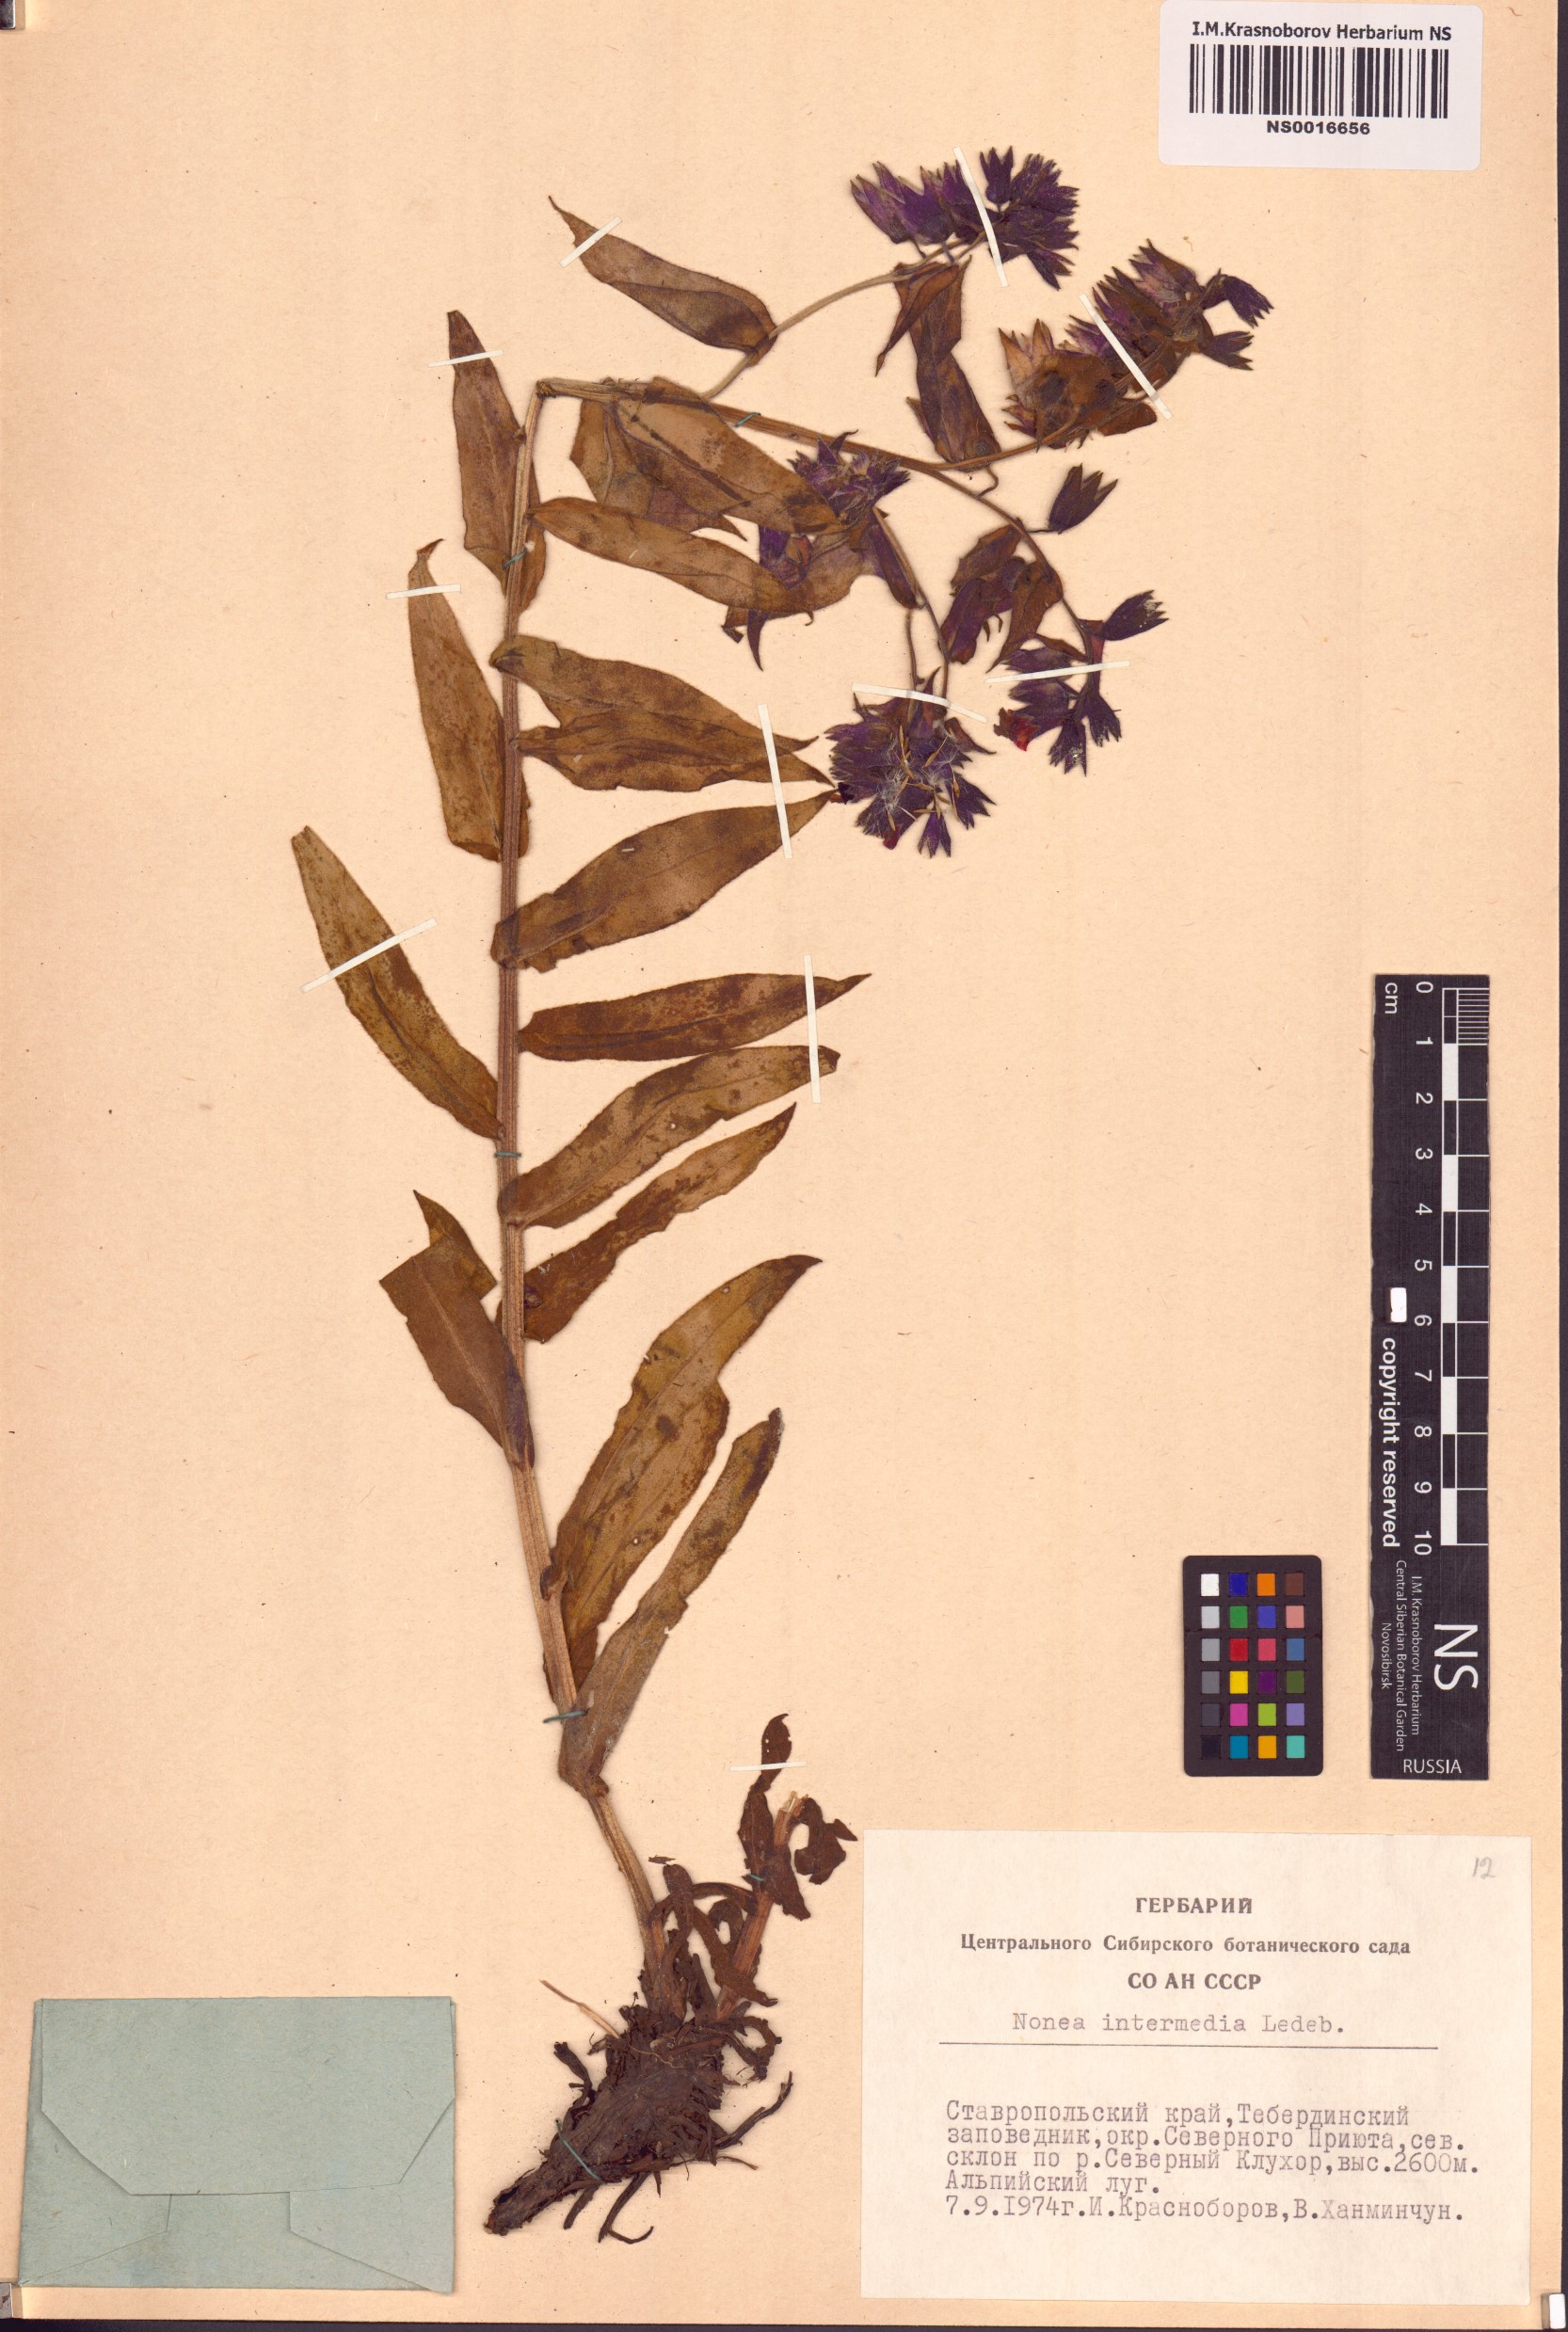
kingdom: Plantae
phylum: Tracheophyta
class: Magnoliopsida
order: Boraginales
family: Boraginaceae
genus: Nonea
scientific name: Nonea intermedia
